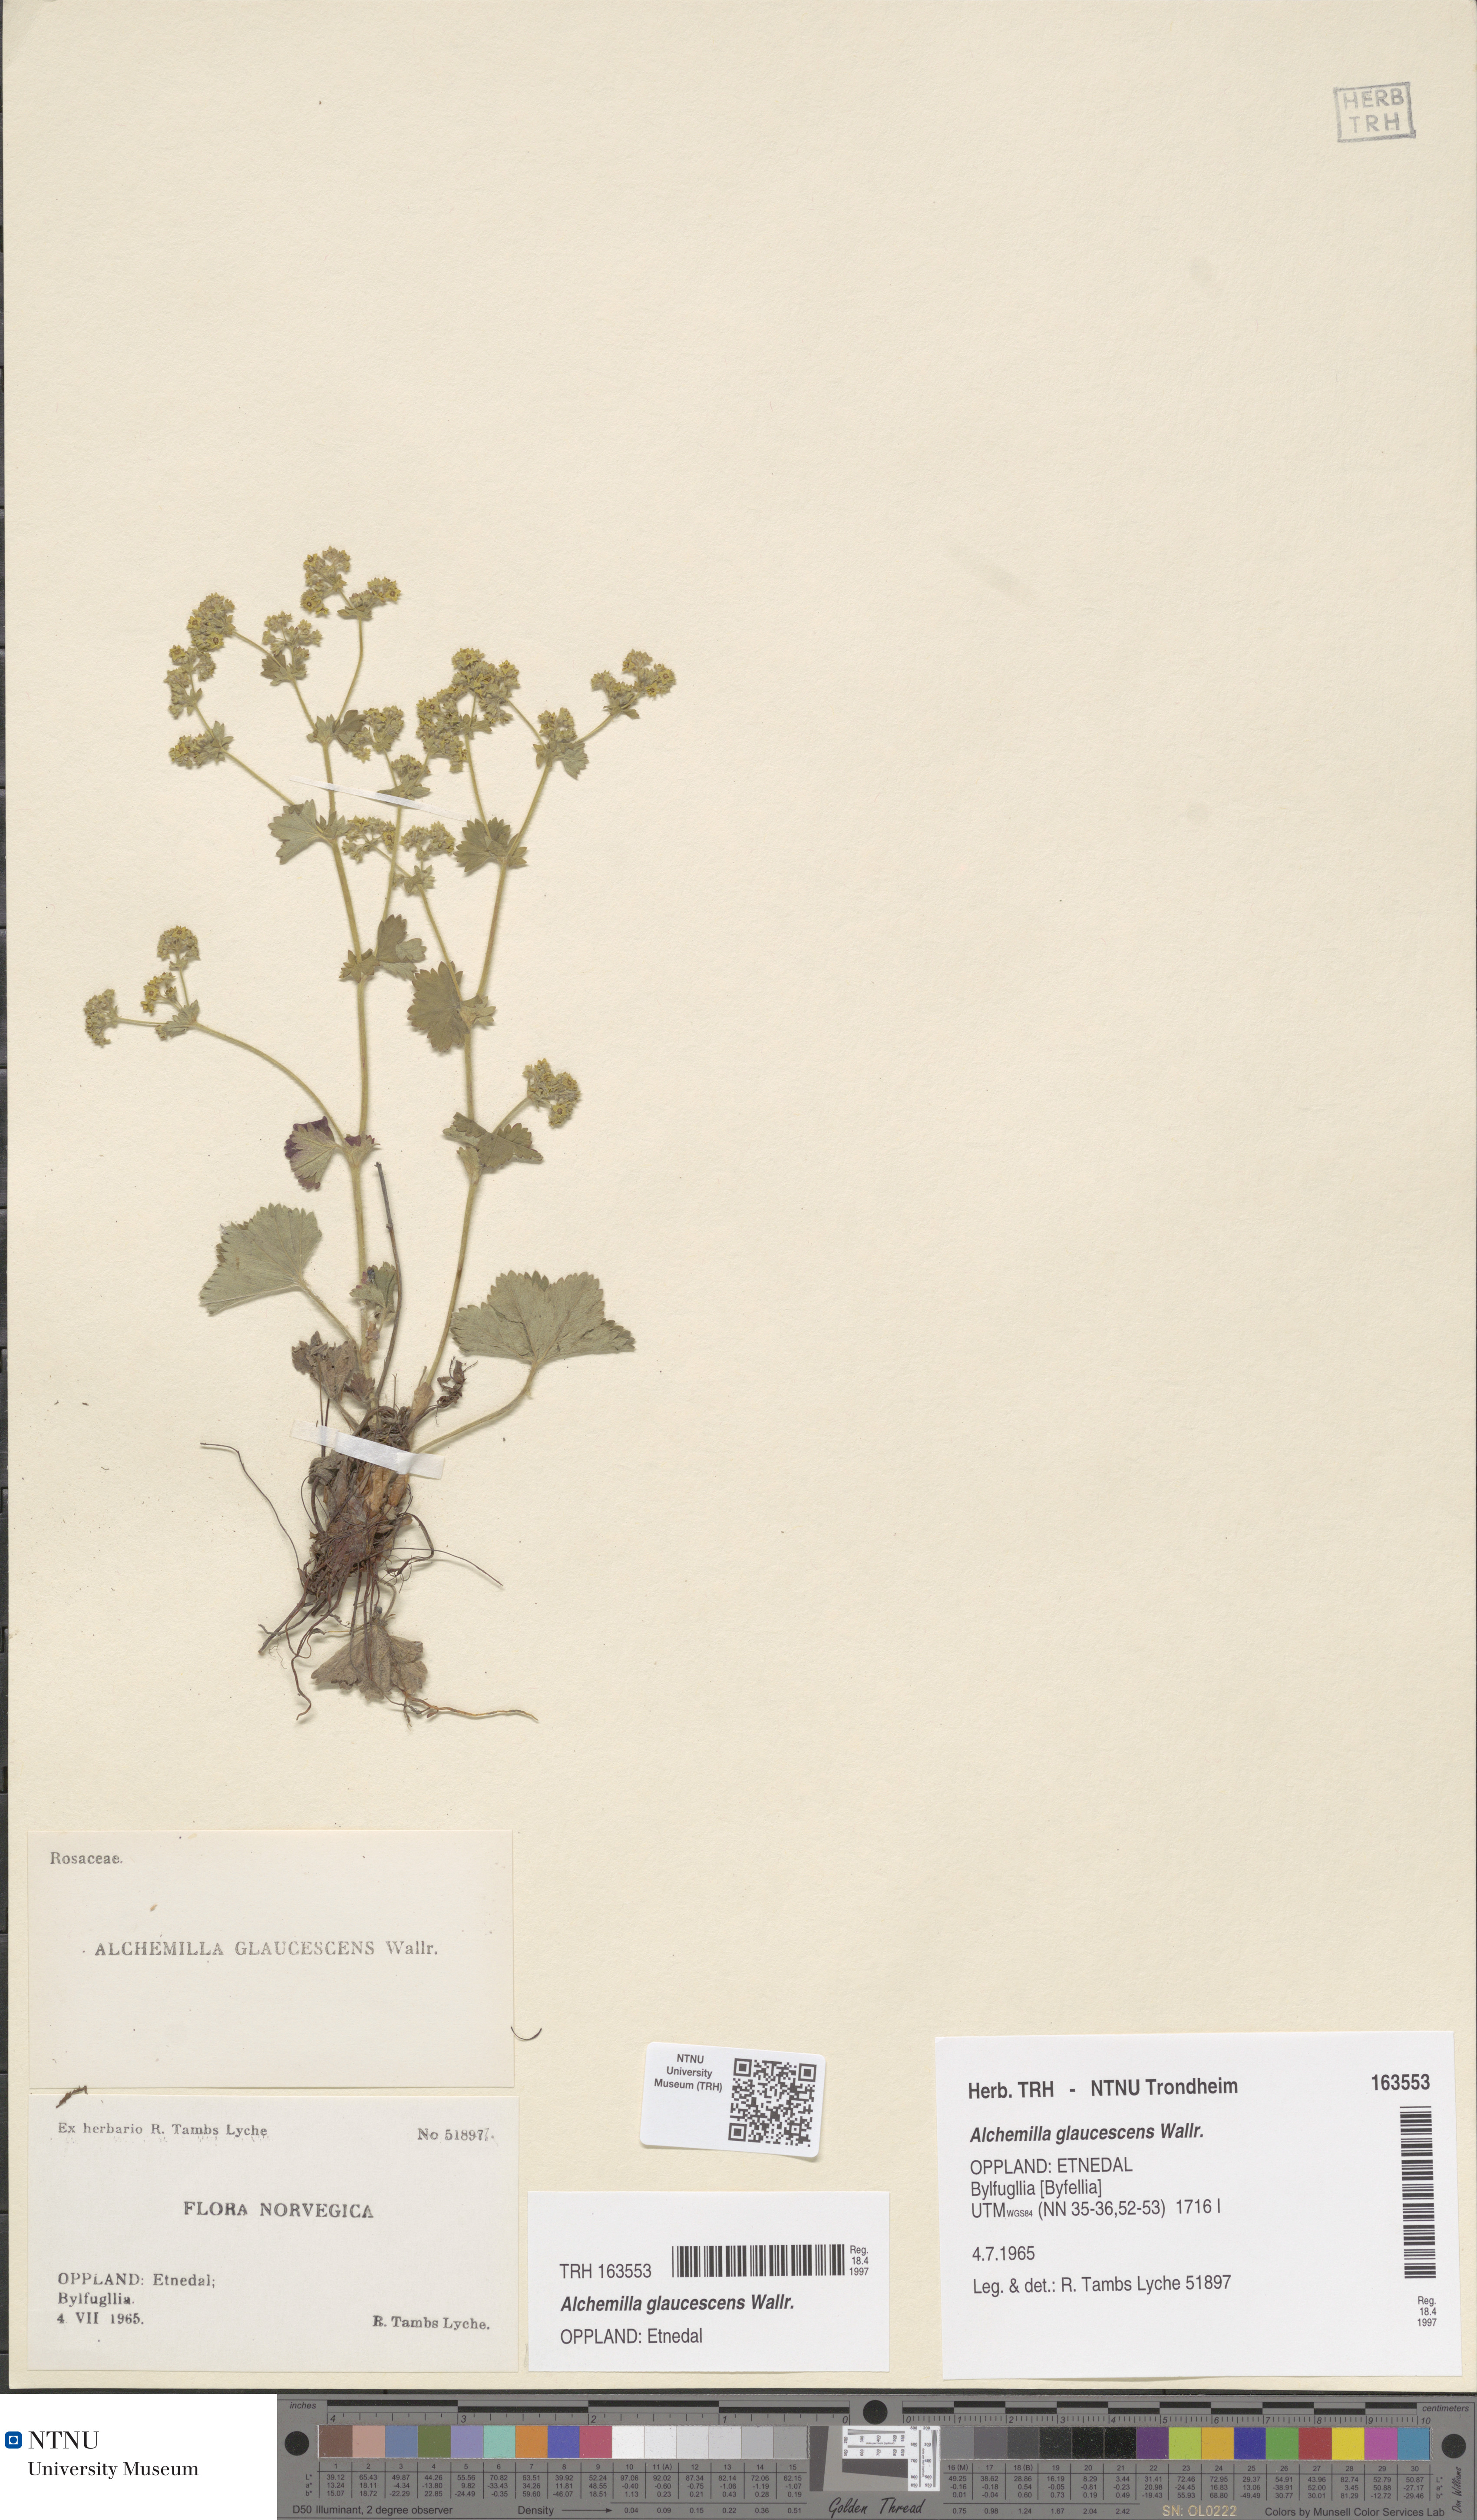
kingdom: Plantae
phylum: Tracheophyta
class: Magnoliopsida
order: Rosales
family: Rosaceae
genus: Alchemilla
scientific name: Alchemilla glaucescens
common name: Silky lady's mantle
